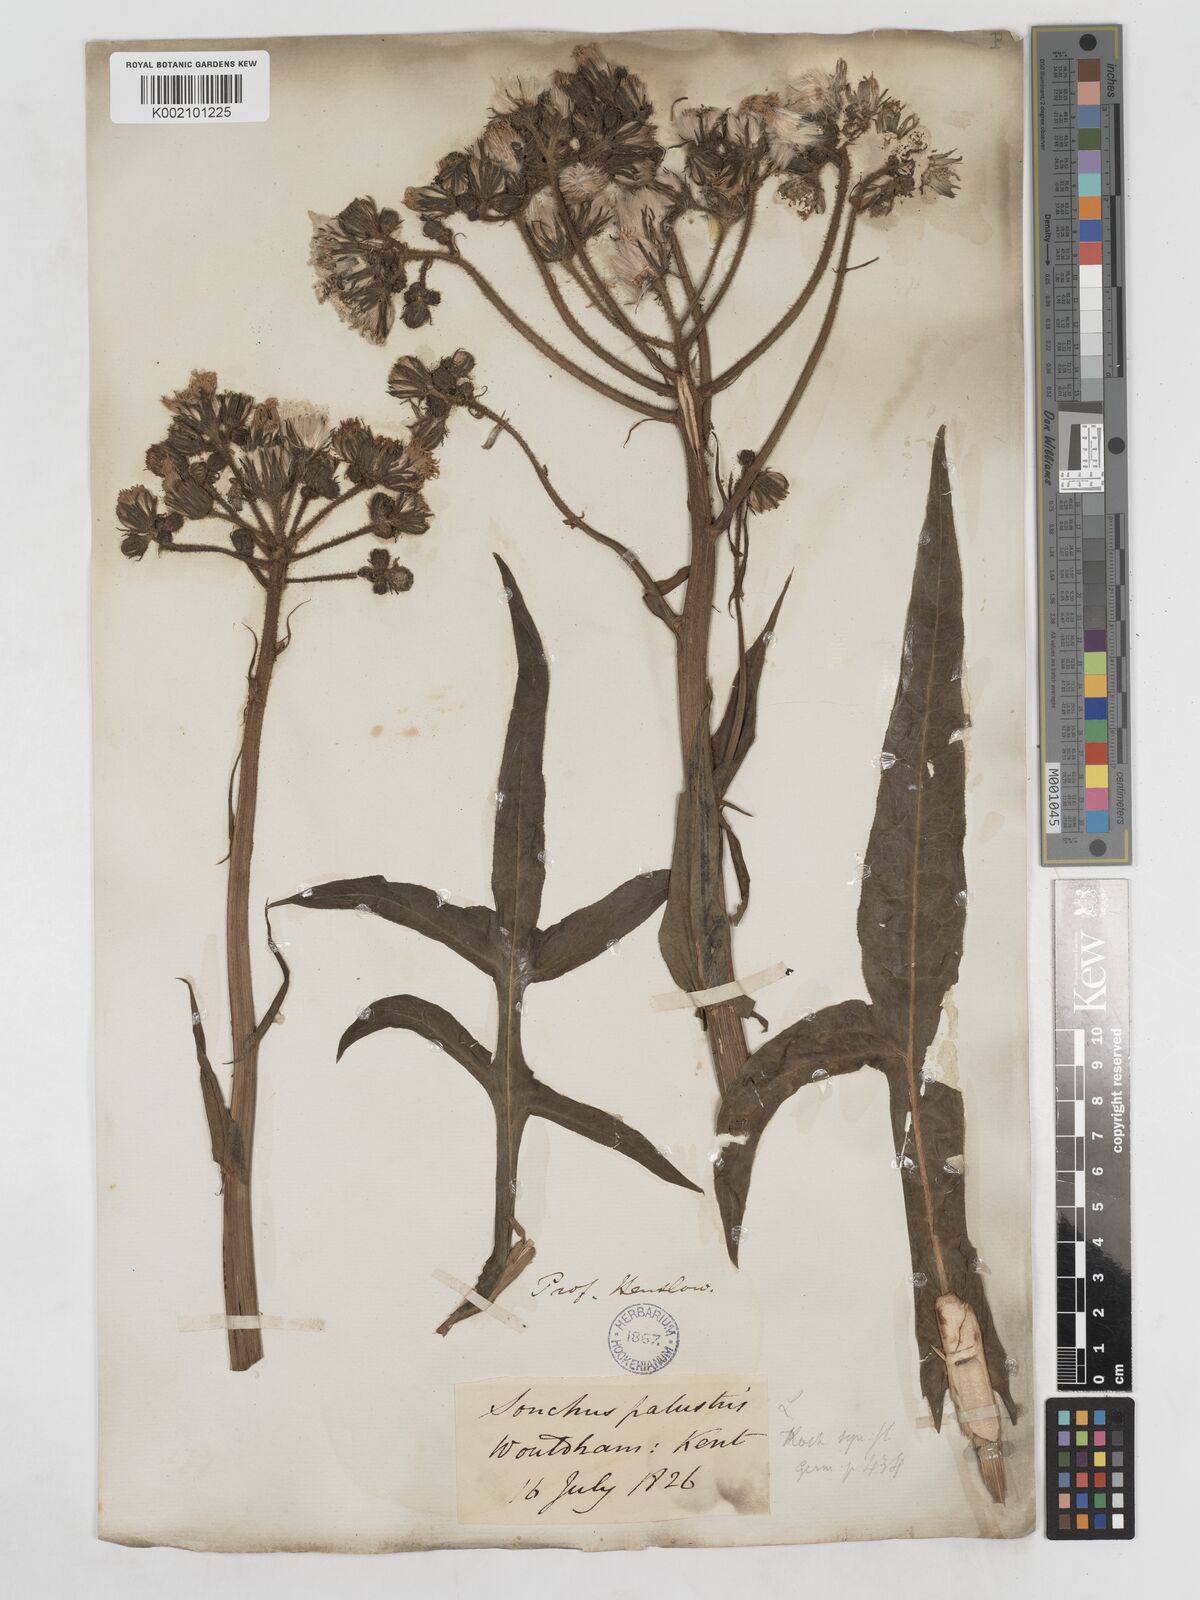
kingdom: Plantae
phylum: Tracheophyta
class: Magnoliopsida
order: Asterales
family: Asteraceae
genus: Sonchus
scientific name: Sonchus palustris
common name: Marsh sow-thistle
